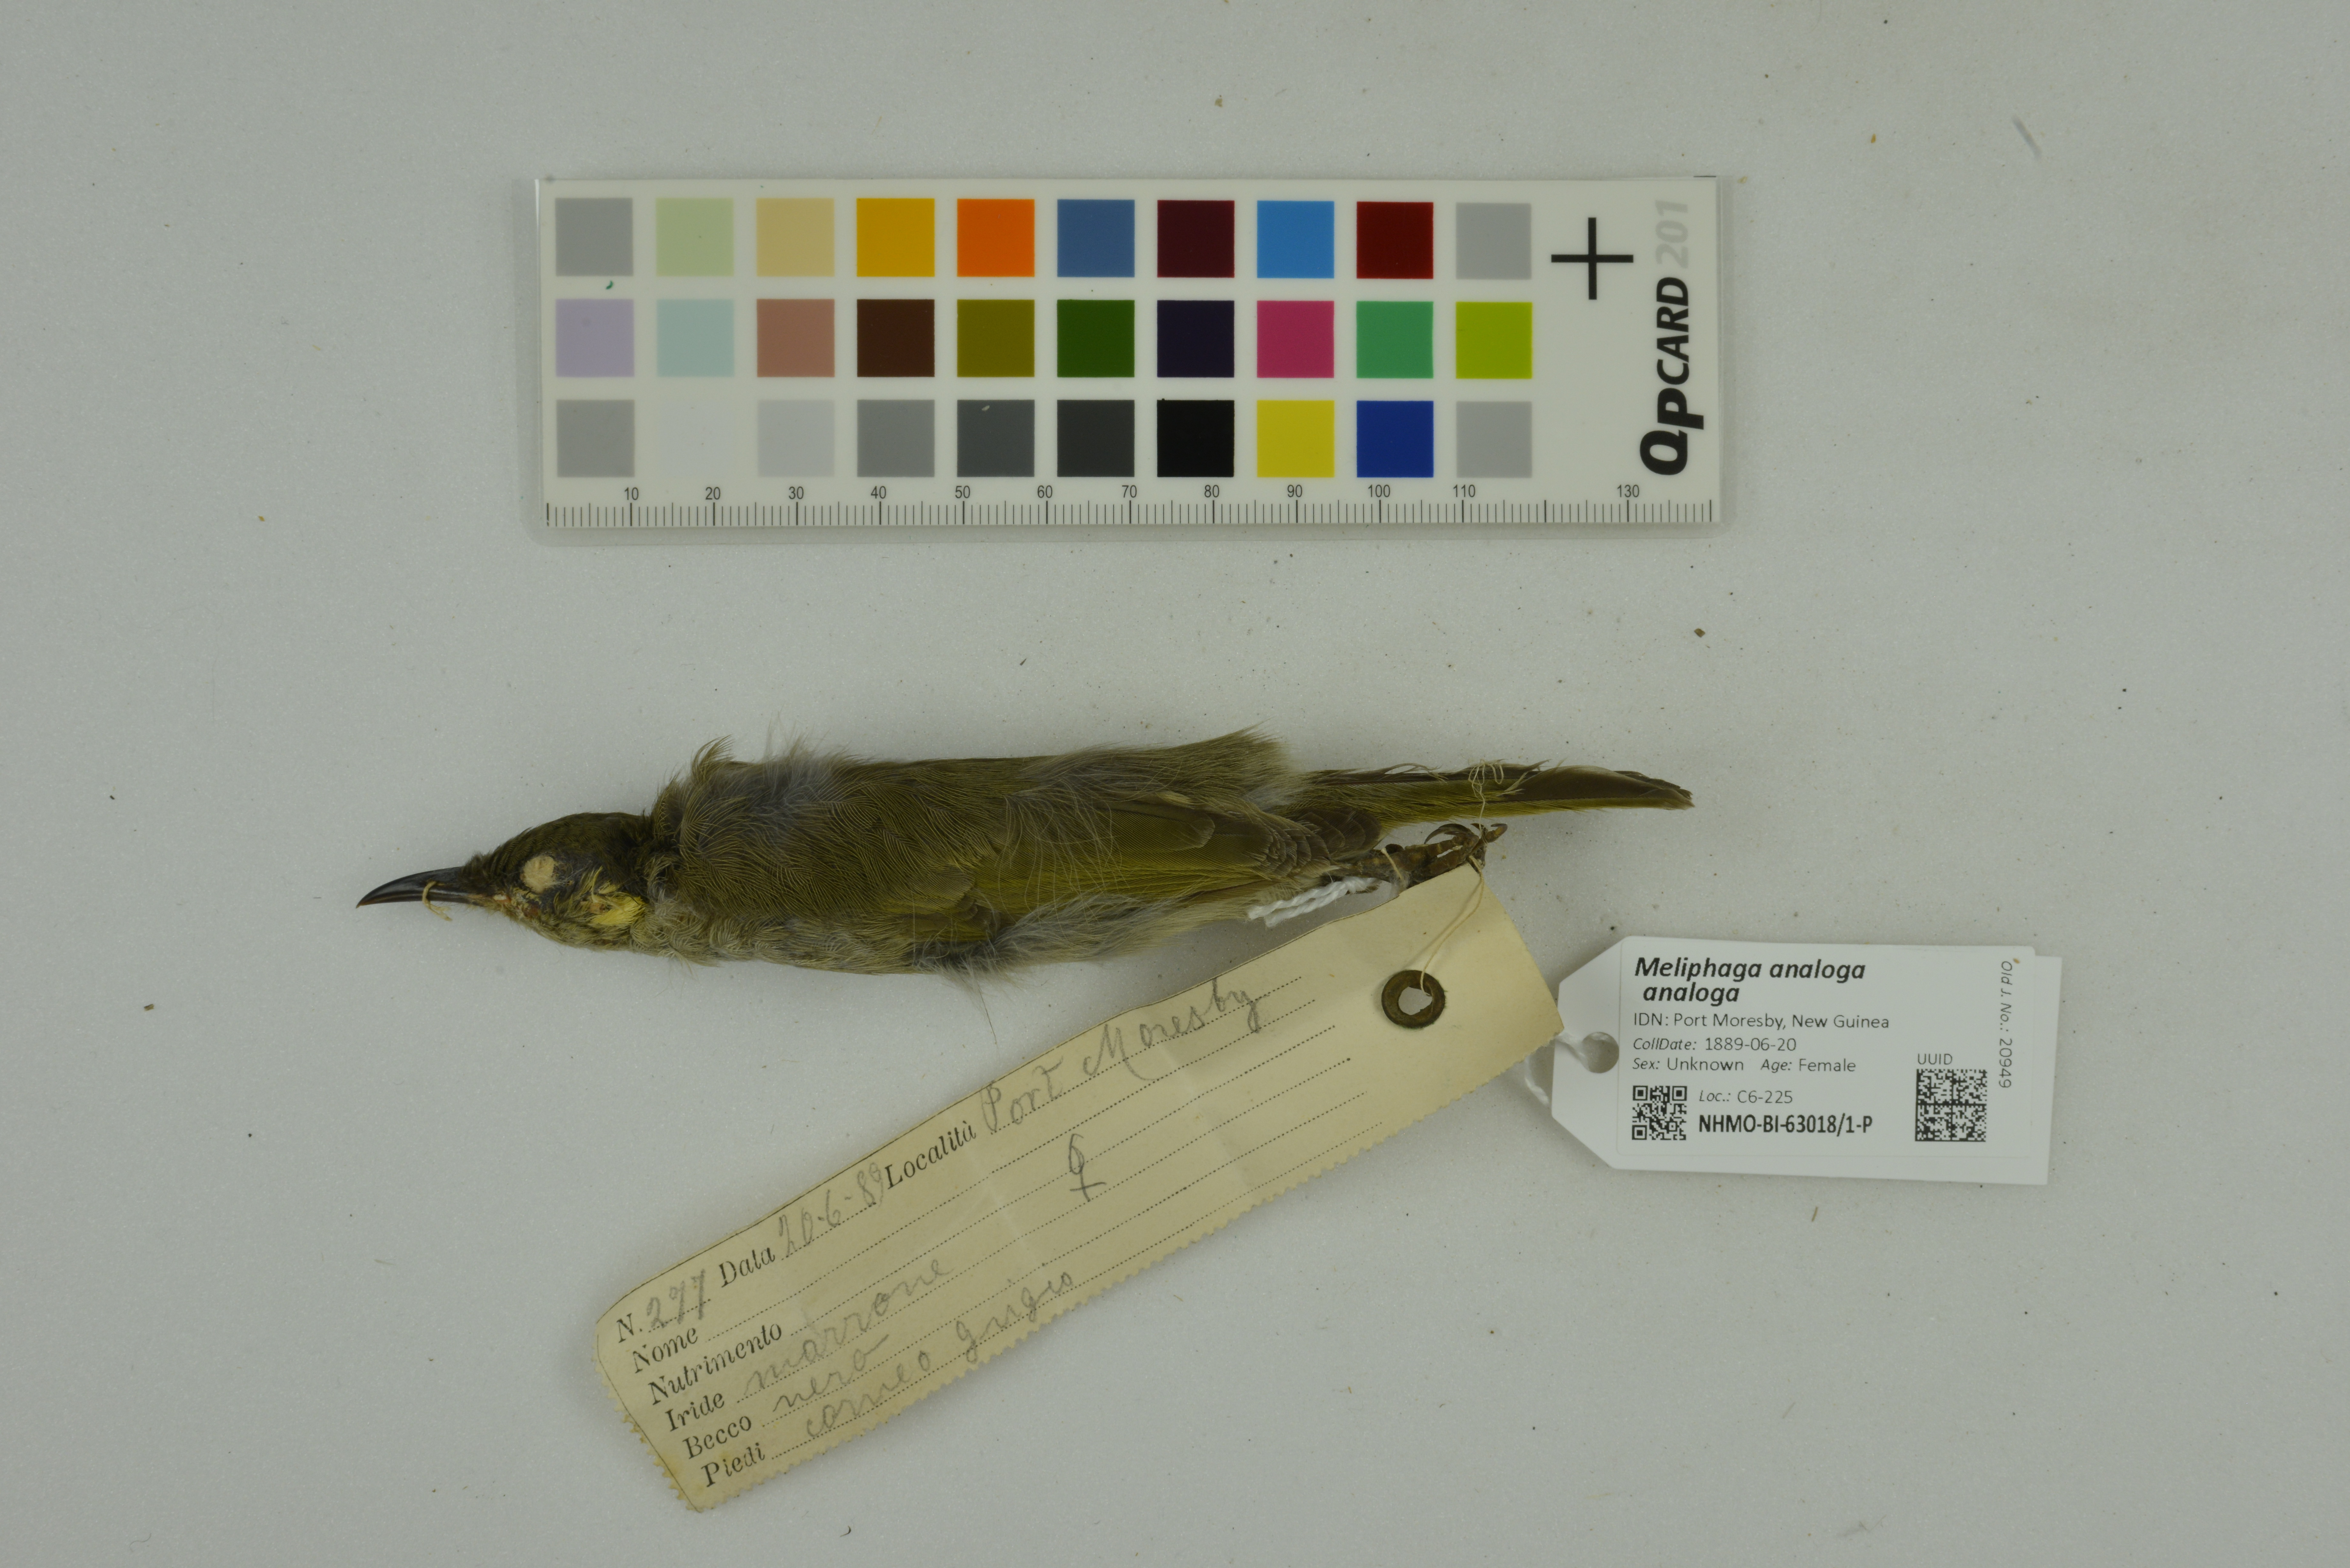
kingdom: Animalia
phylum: Chordata
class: Aves
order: Passeriformes
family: Meliphagidae
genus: Microptilotis
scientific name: Microptilotis analogus
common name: Mimic honeyeater
